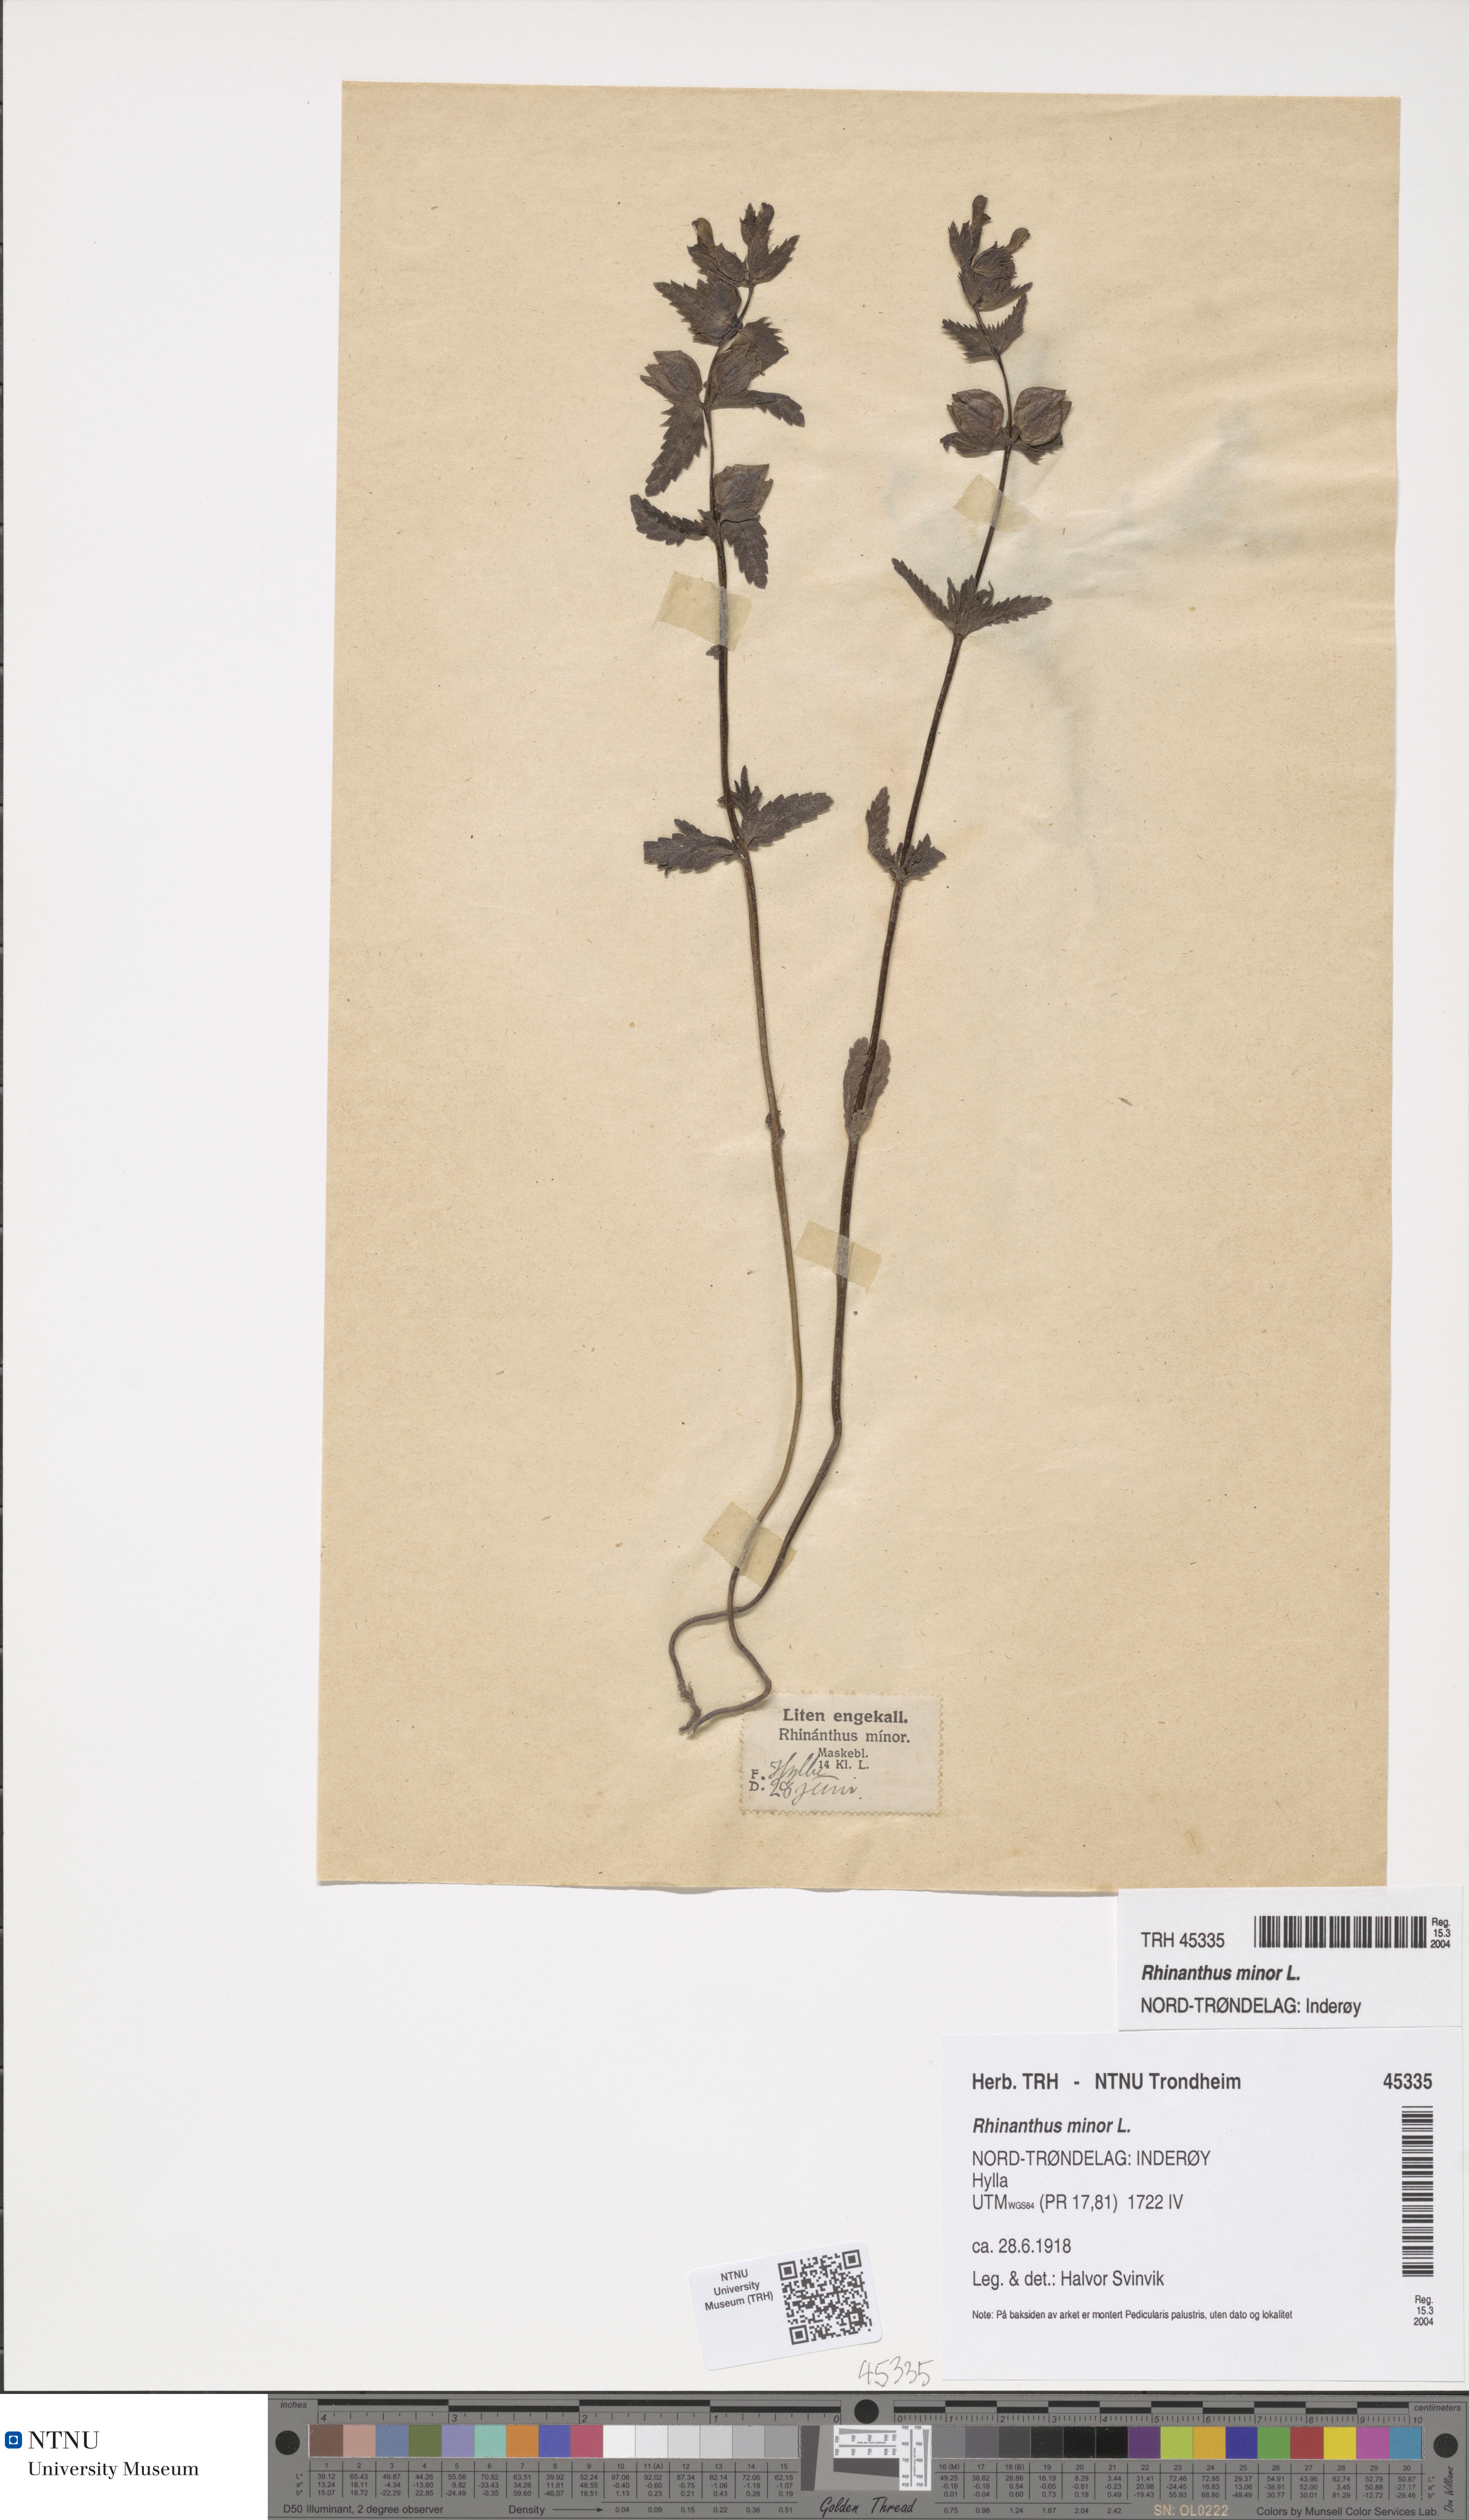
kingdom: Plantae
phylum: Tracheophyta
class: Magnoliopsida
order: Lamiales
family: Orobanchaceae
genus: Rhinanthus
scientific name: Rhinanthus minor
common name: Yellow-rattle
